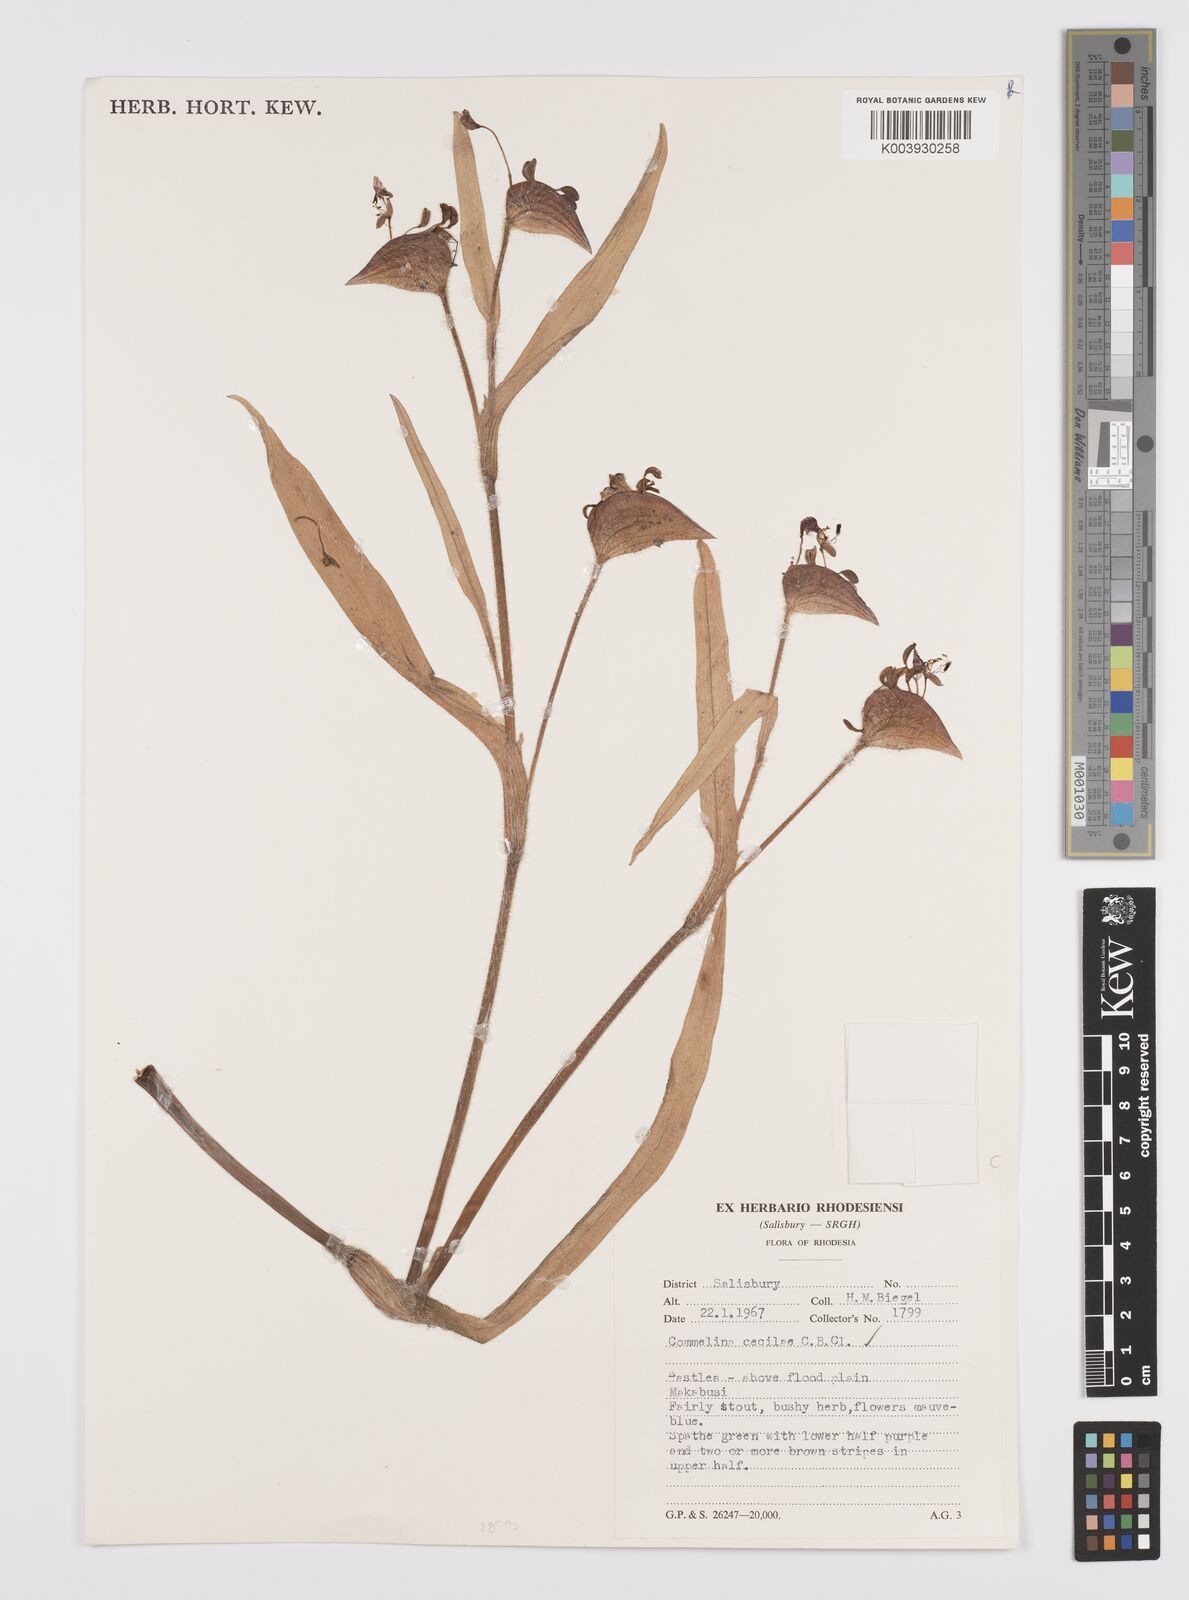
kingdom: Plantae
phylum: Tracheophyta
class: Liliopsida
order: Commelinales
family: Commelinaceae
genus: Commelina
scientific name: Commelina schweinfurthii
